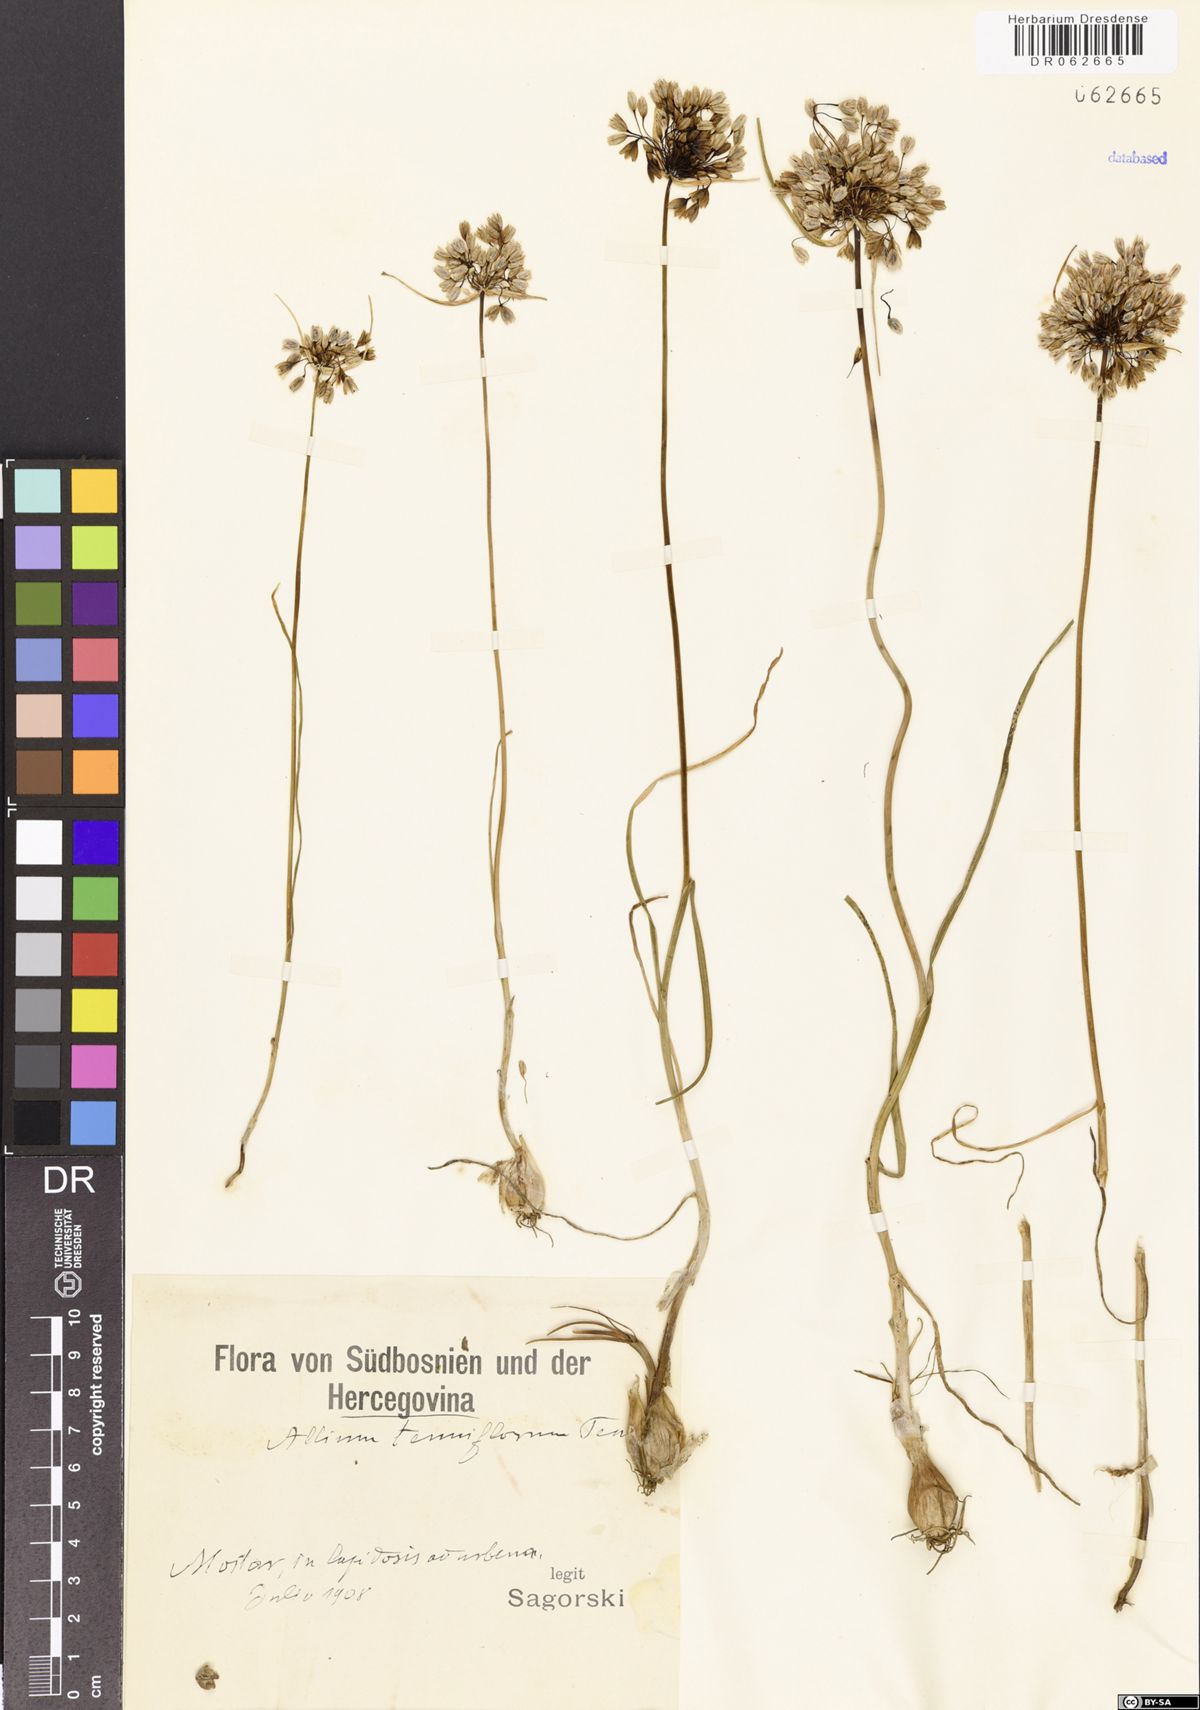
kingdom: Plantae
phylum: Tracheophyta
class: Liliopsida
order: Asparagales
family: Amaryllidaceae
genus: Allium
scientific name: Allium tenuiflorum
